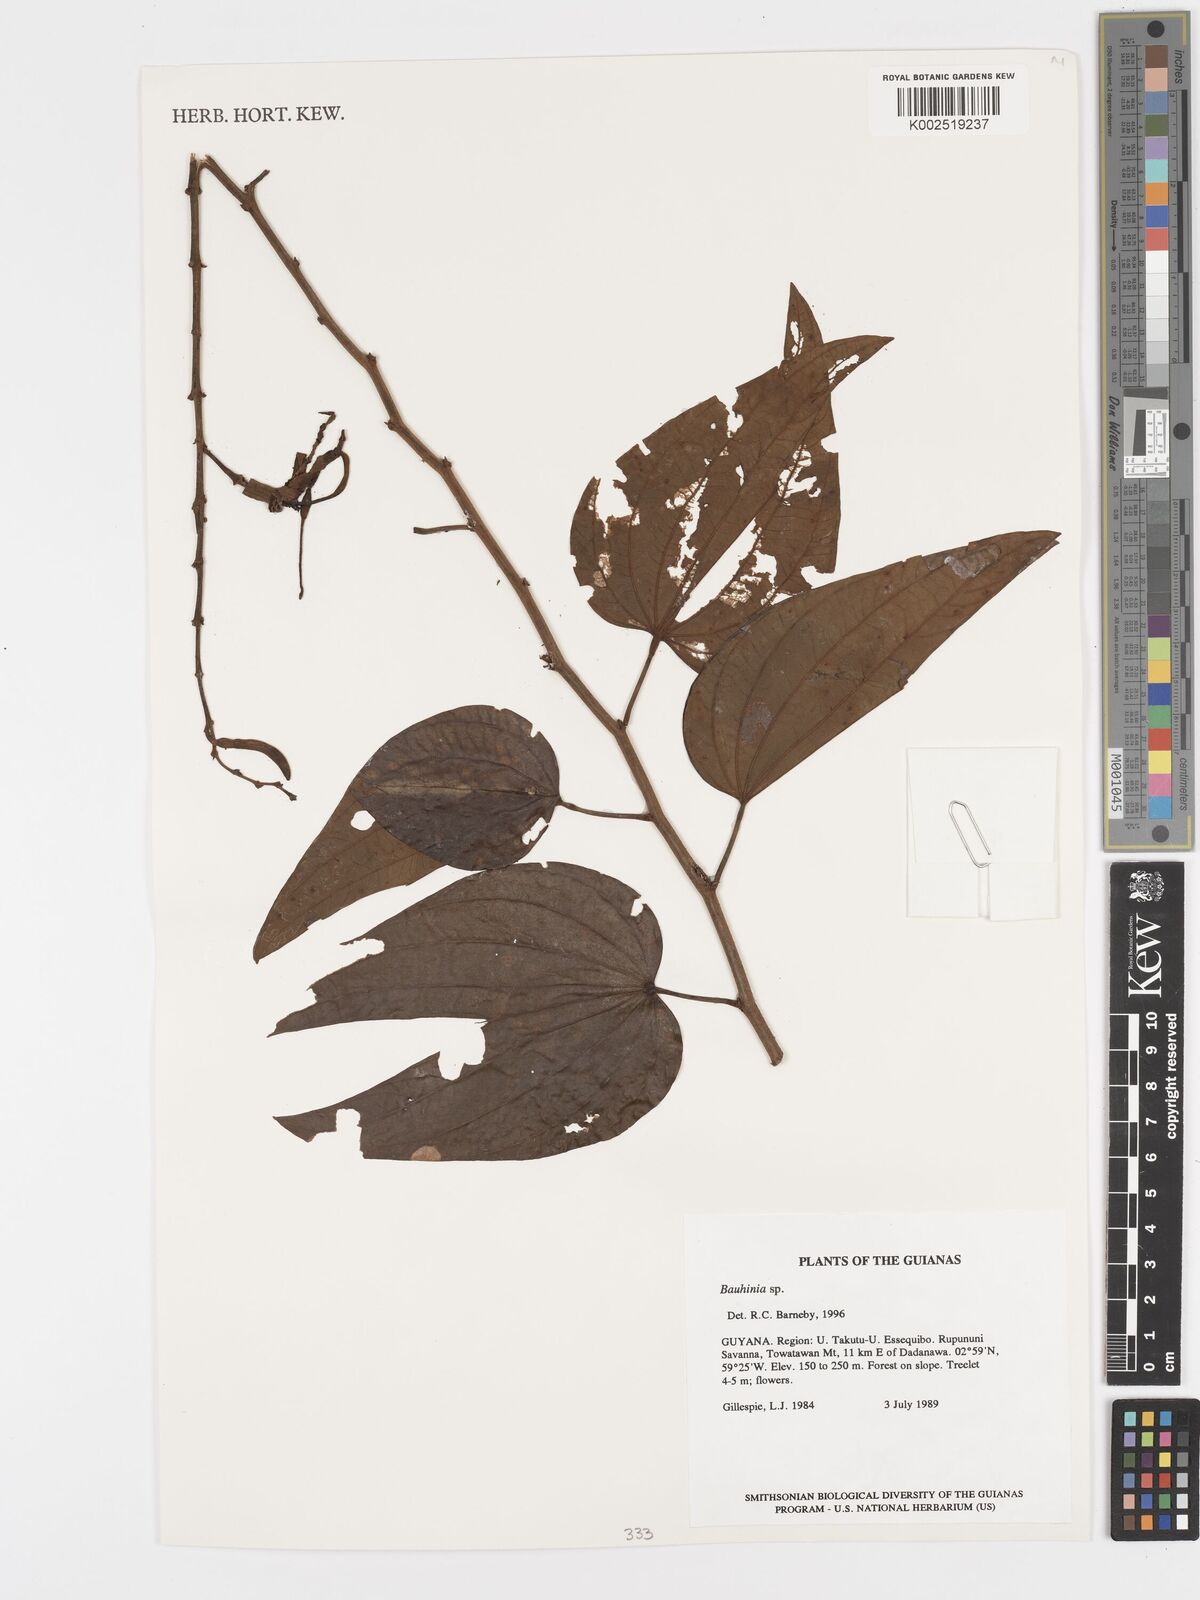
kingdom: Plantae
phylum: Tracheophyta
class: Magnoliopsida
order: Fabales
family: Fabaceae
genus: Bauhinia
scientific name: Bauhinia
